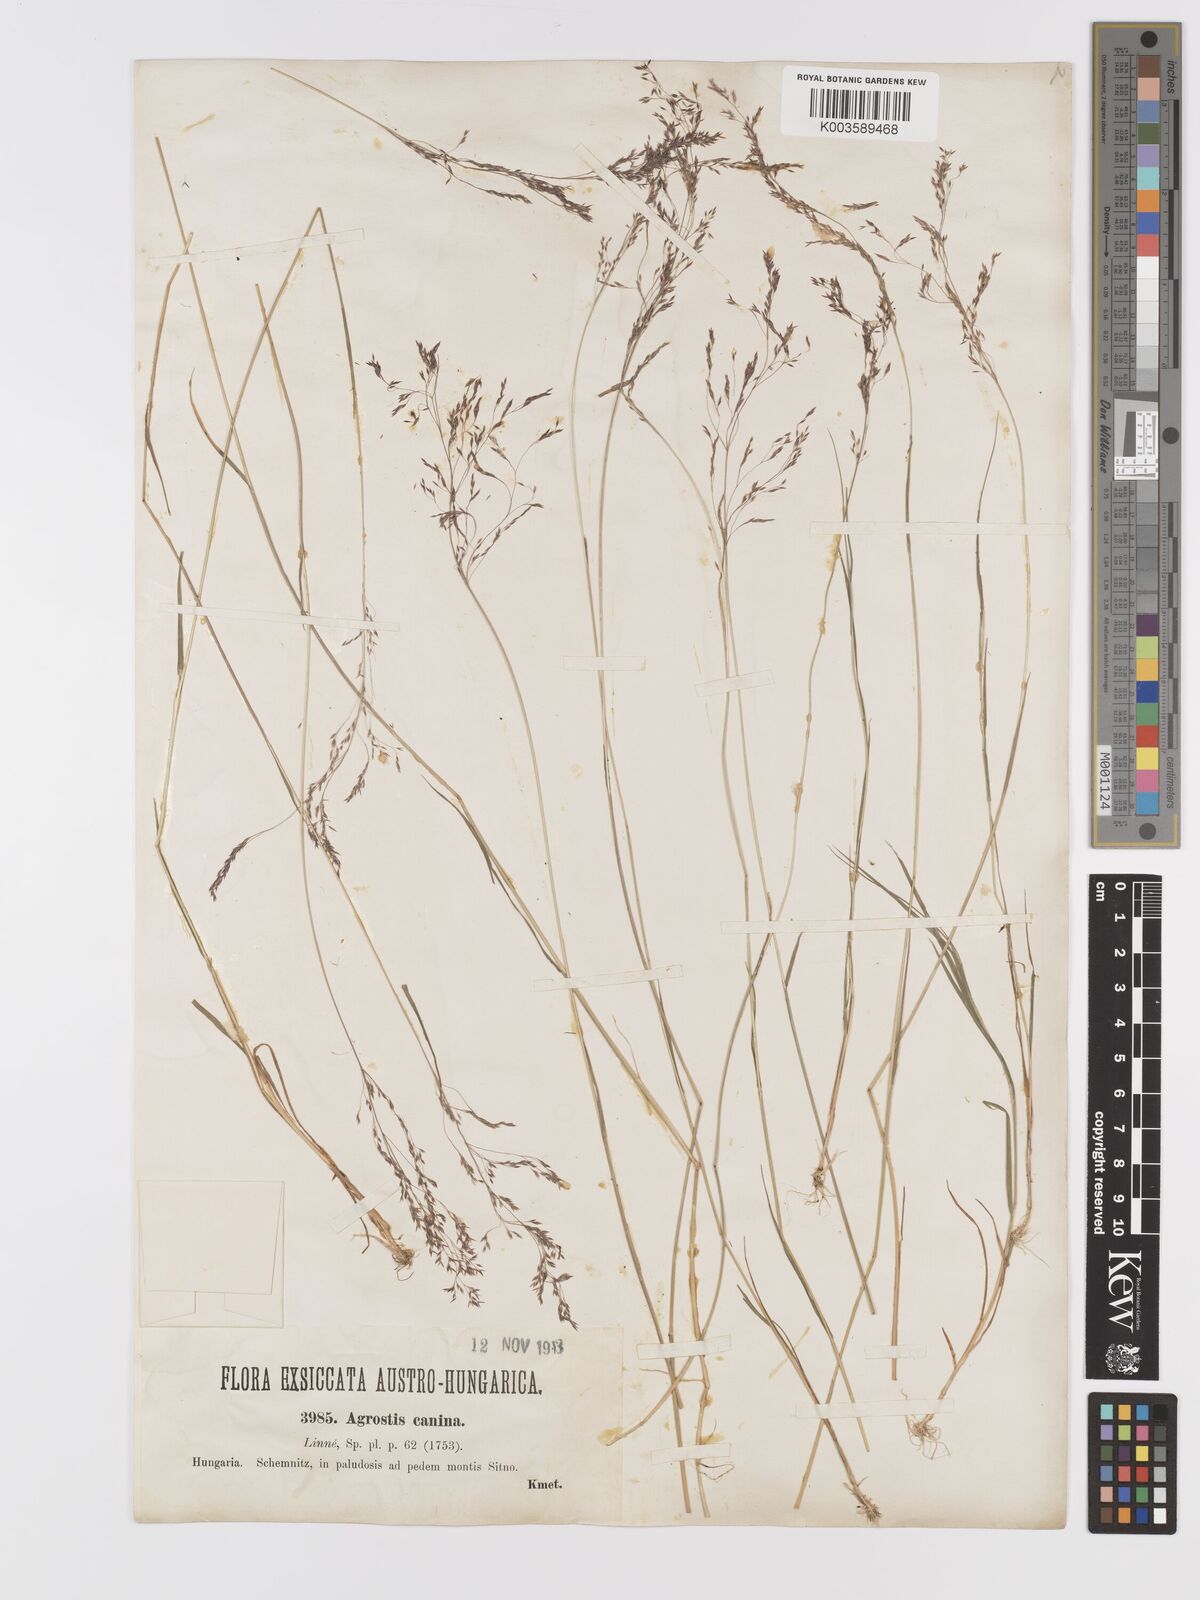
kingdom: Plantae
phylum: Tracheophyta
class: Liliopsida
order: Poales
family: Poaceae
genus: Agrostis
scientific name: Agrostis canina
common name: Velvet bent
